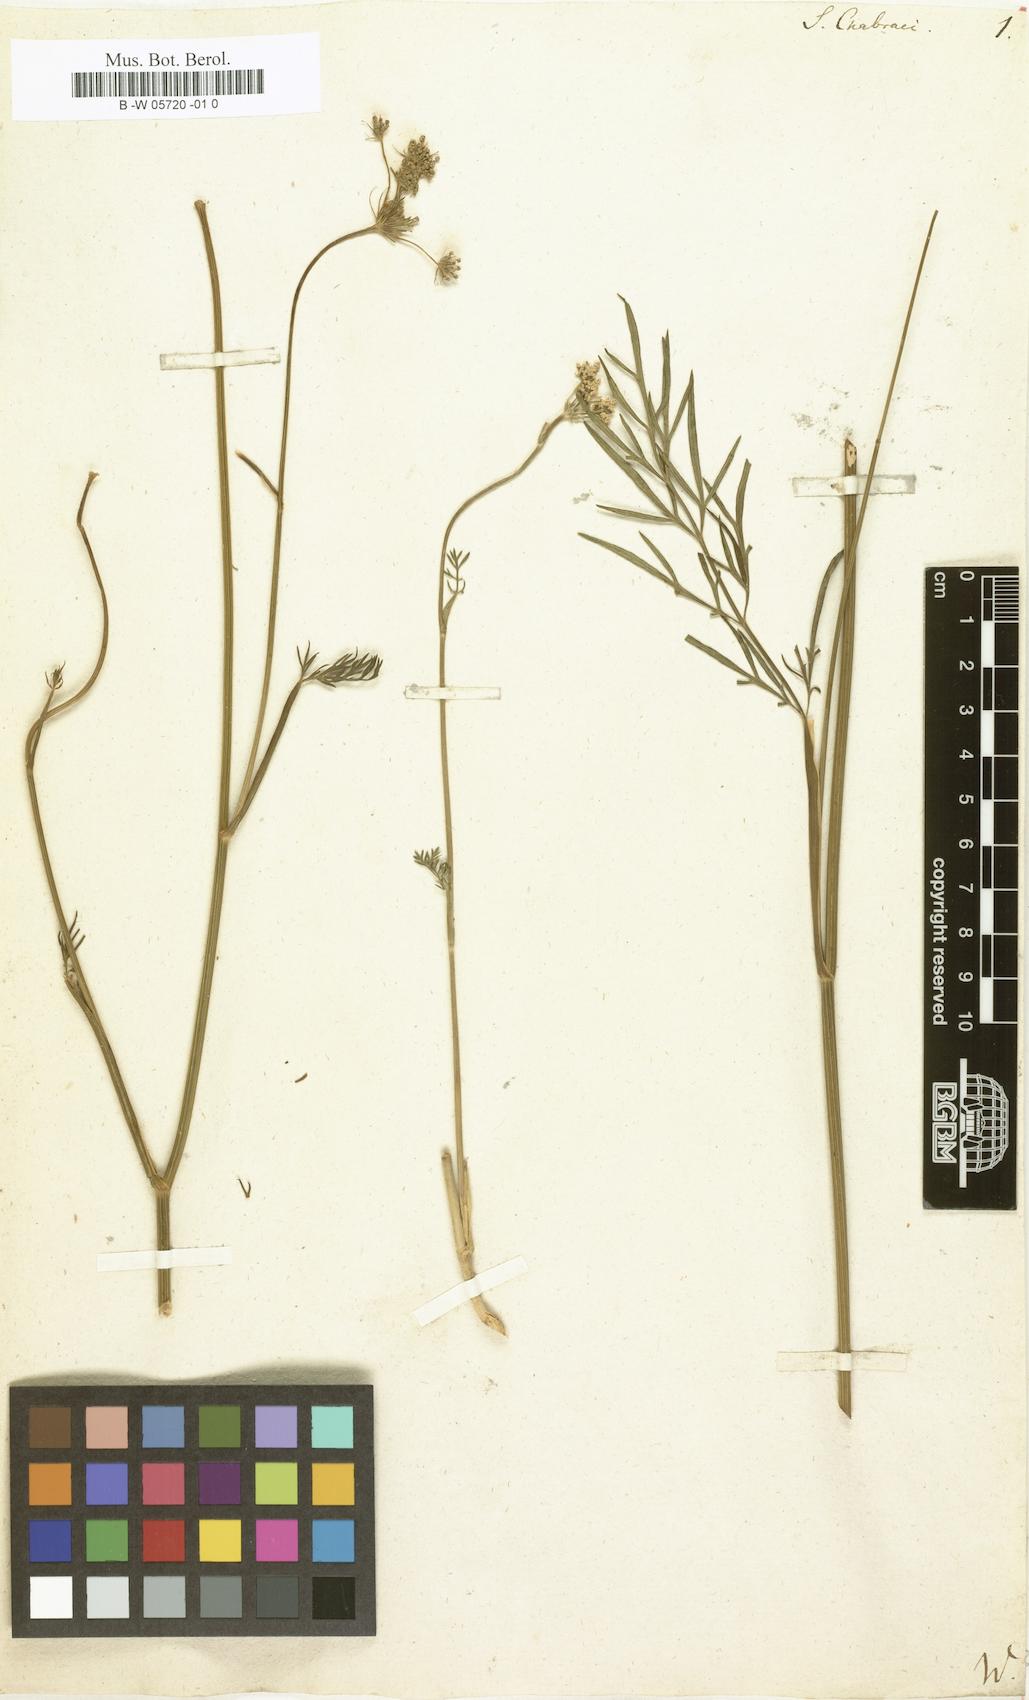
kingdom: Plantae
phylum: Tracheophyta
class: Magnoliopsida
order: Apiales
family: Apiaceae
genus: Selinum
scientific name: Selinum chabraei
